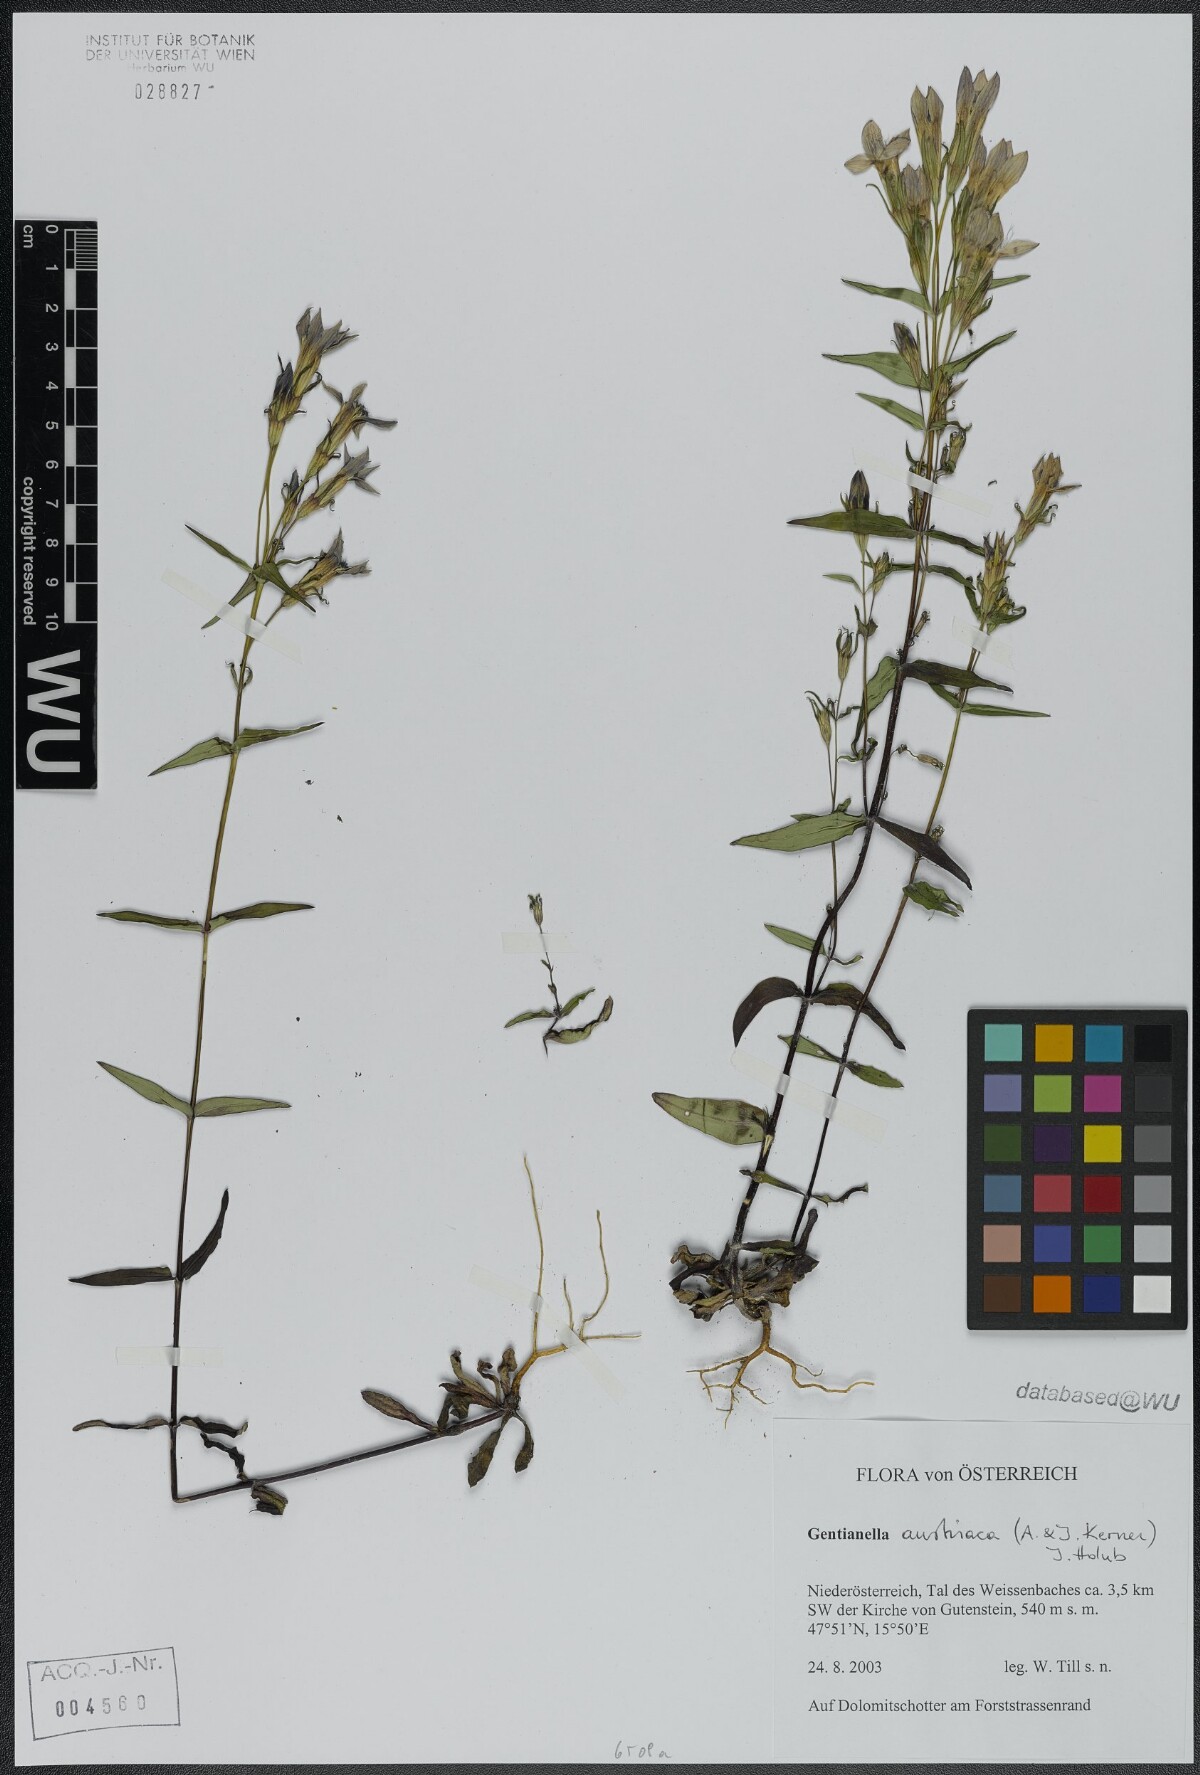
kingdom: Plantae
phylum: Tracheophyta
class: Magnoliopsida
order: Gentianales
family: Gentianaceae
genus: Gentianella
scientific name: Gentianella austriaca
